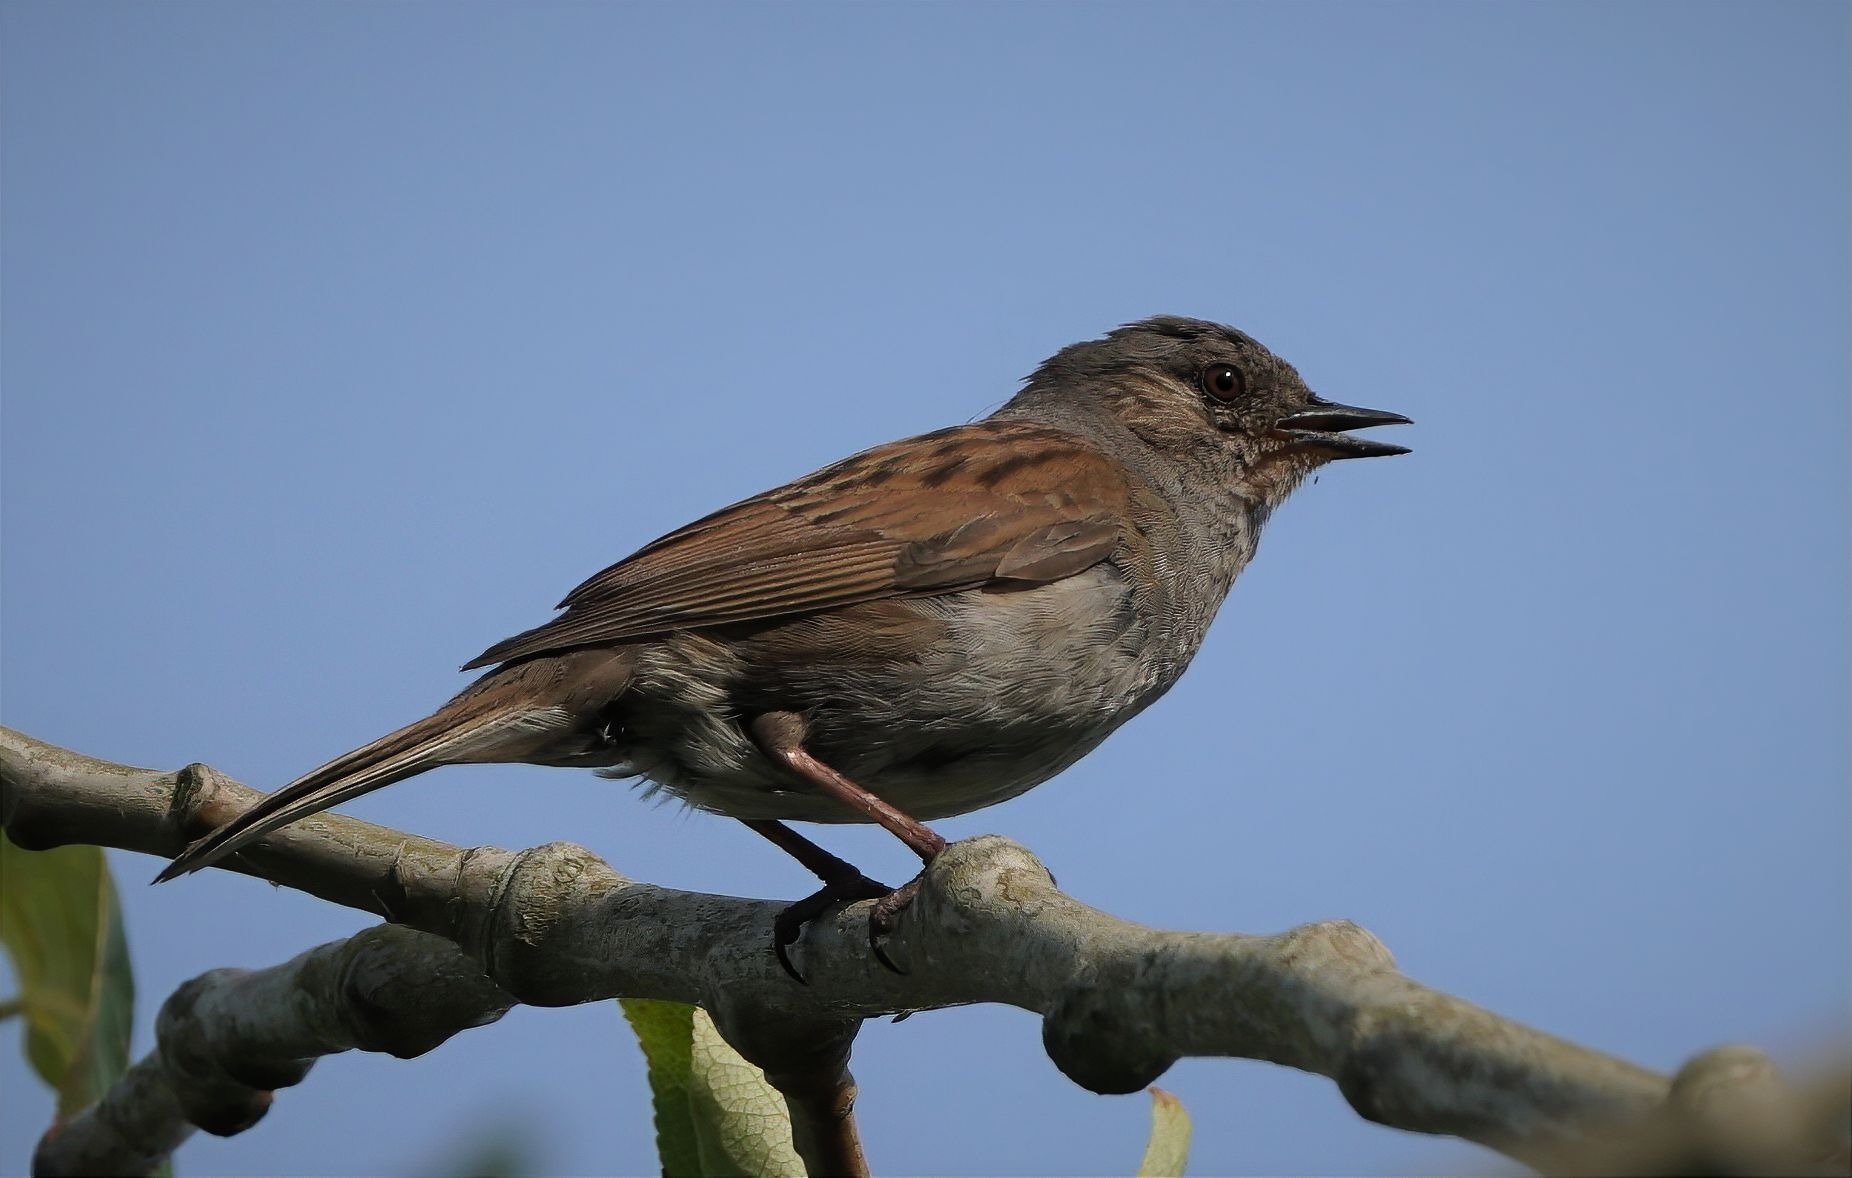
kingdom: Animalia
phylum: Chordata
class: Aves
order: Passeriformes
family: Prunellidae
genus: Prunella
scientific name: Prunella modularis
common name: Jernspurv
